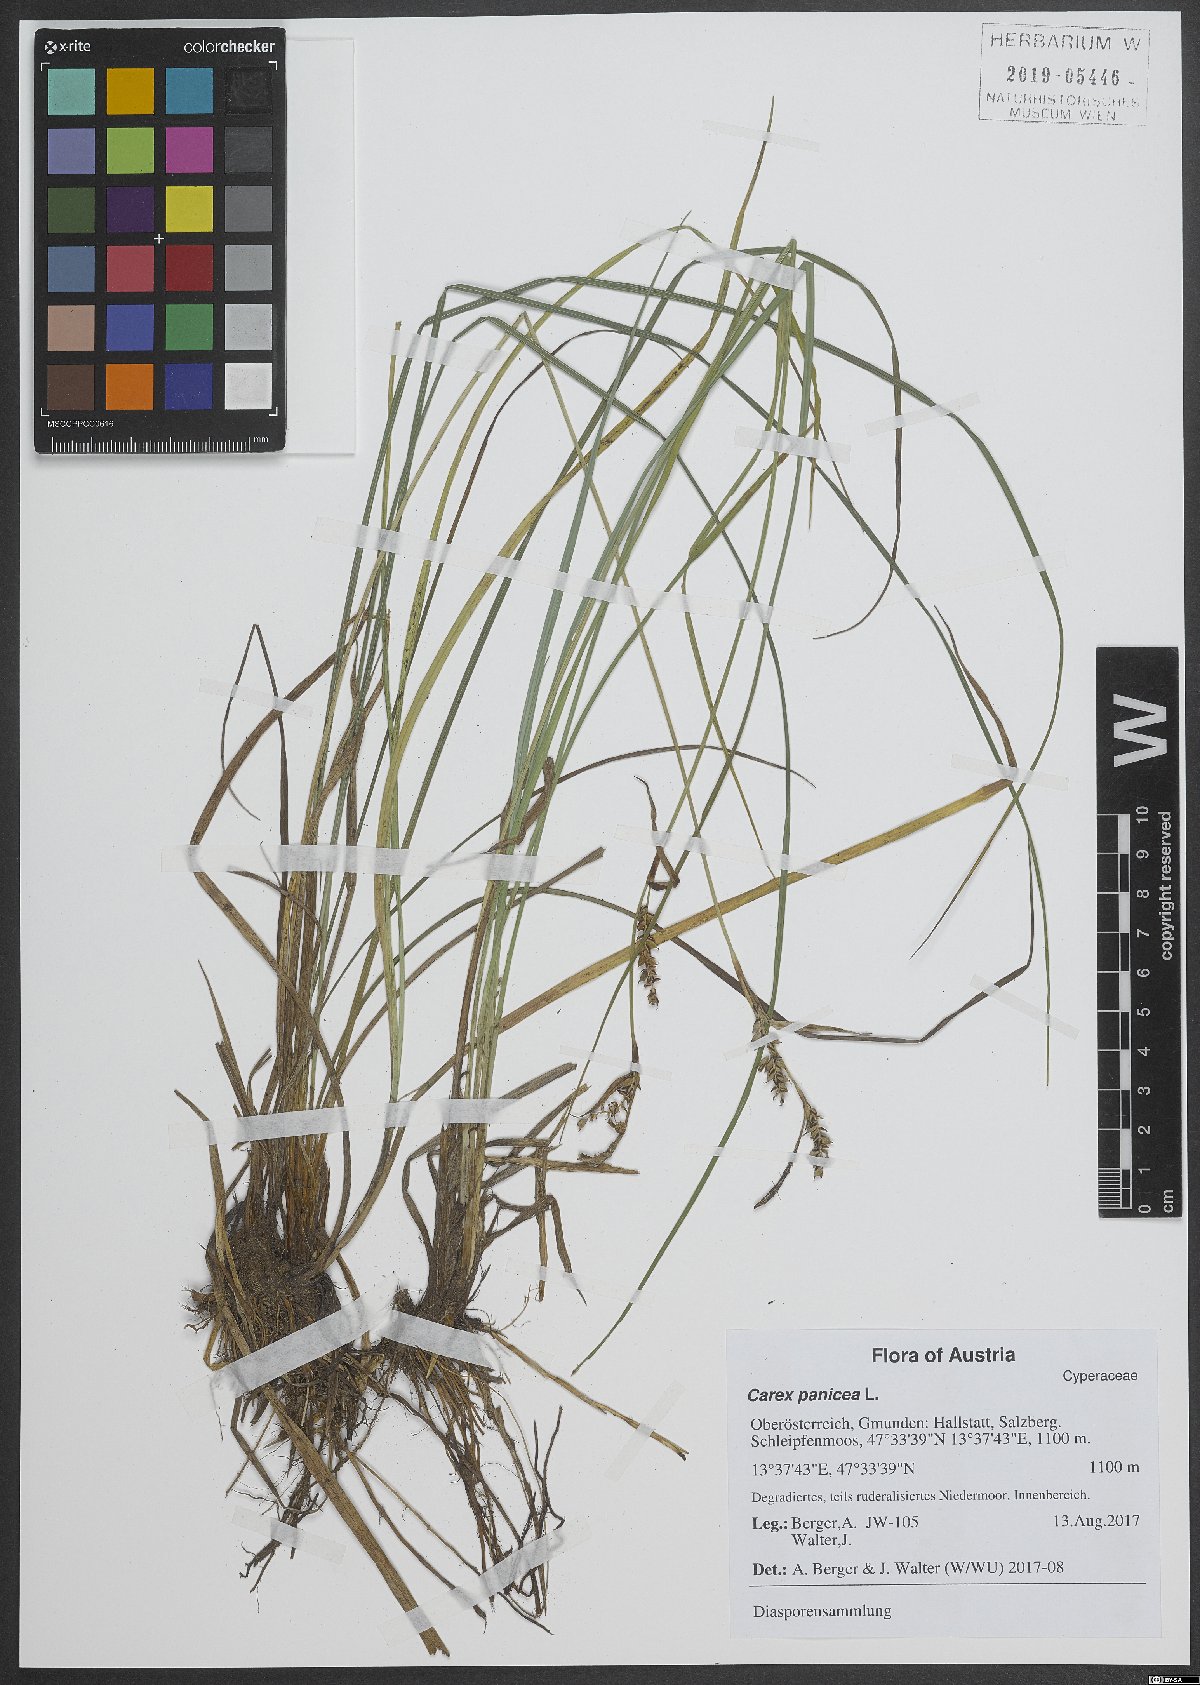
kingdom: Plantae
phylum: Tracheophyta
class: Liliopsida
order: Poales
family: Cyperaceae
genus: Carex
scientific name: Carex panicea
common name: Carnation sedge
